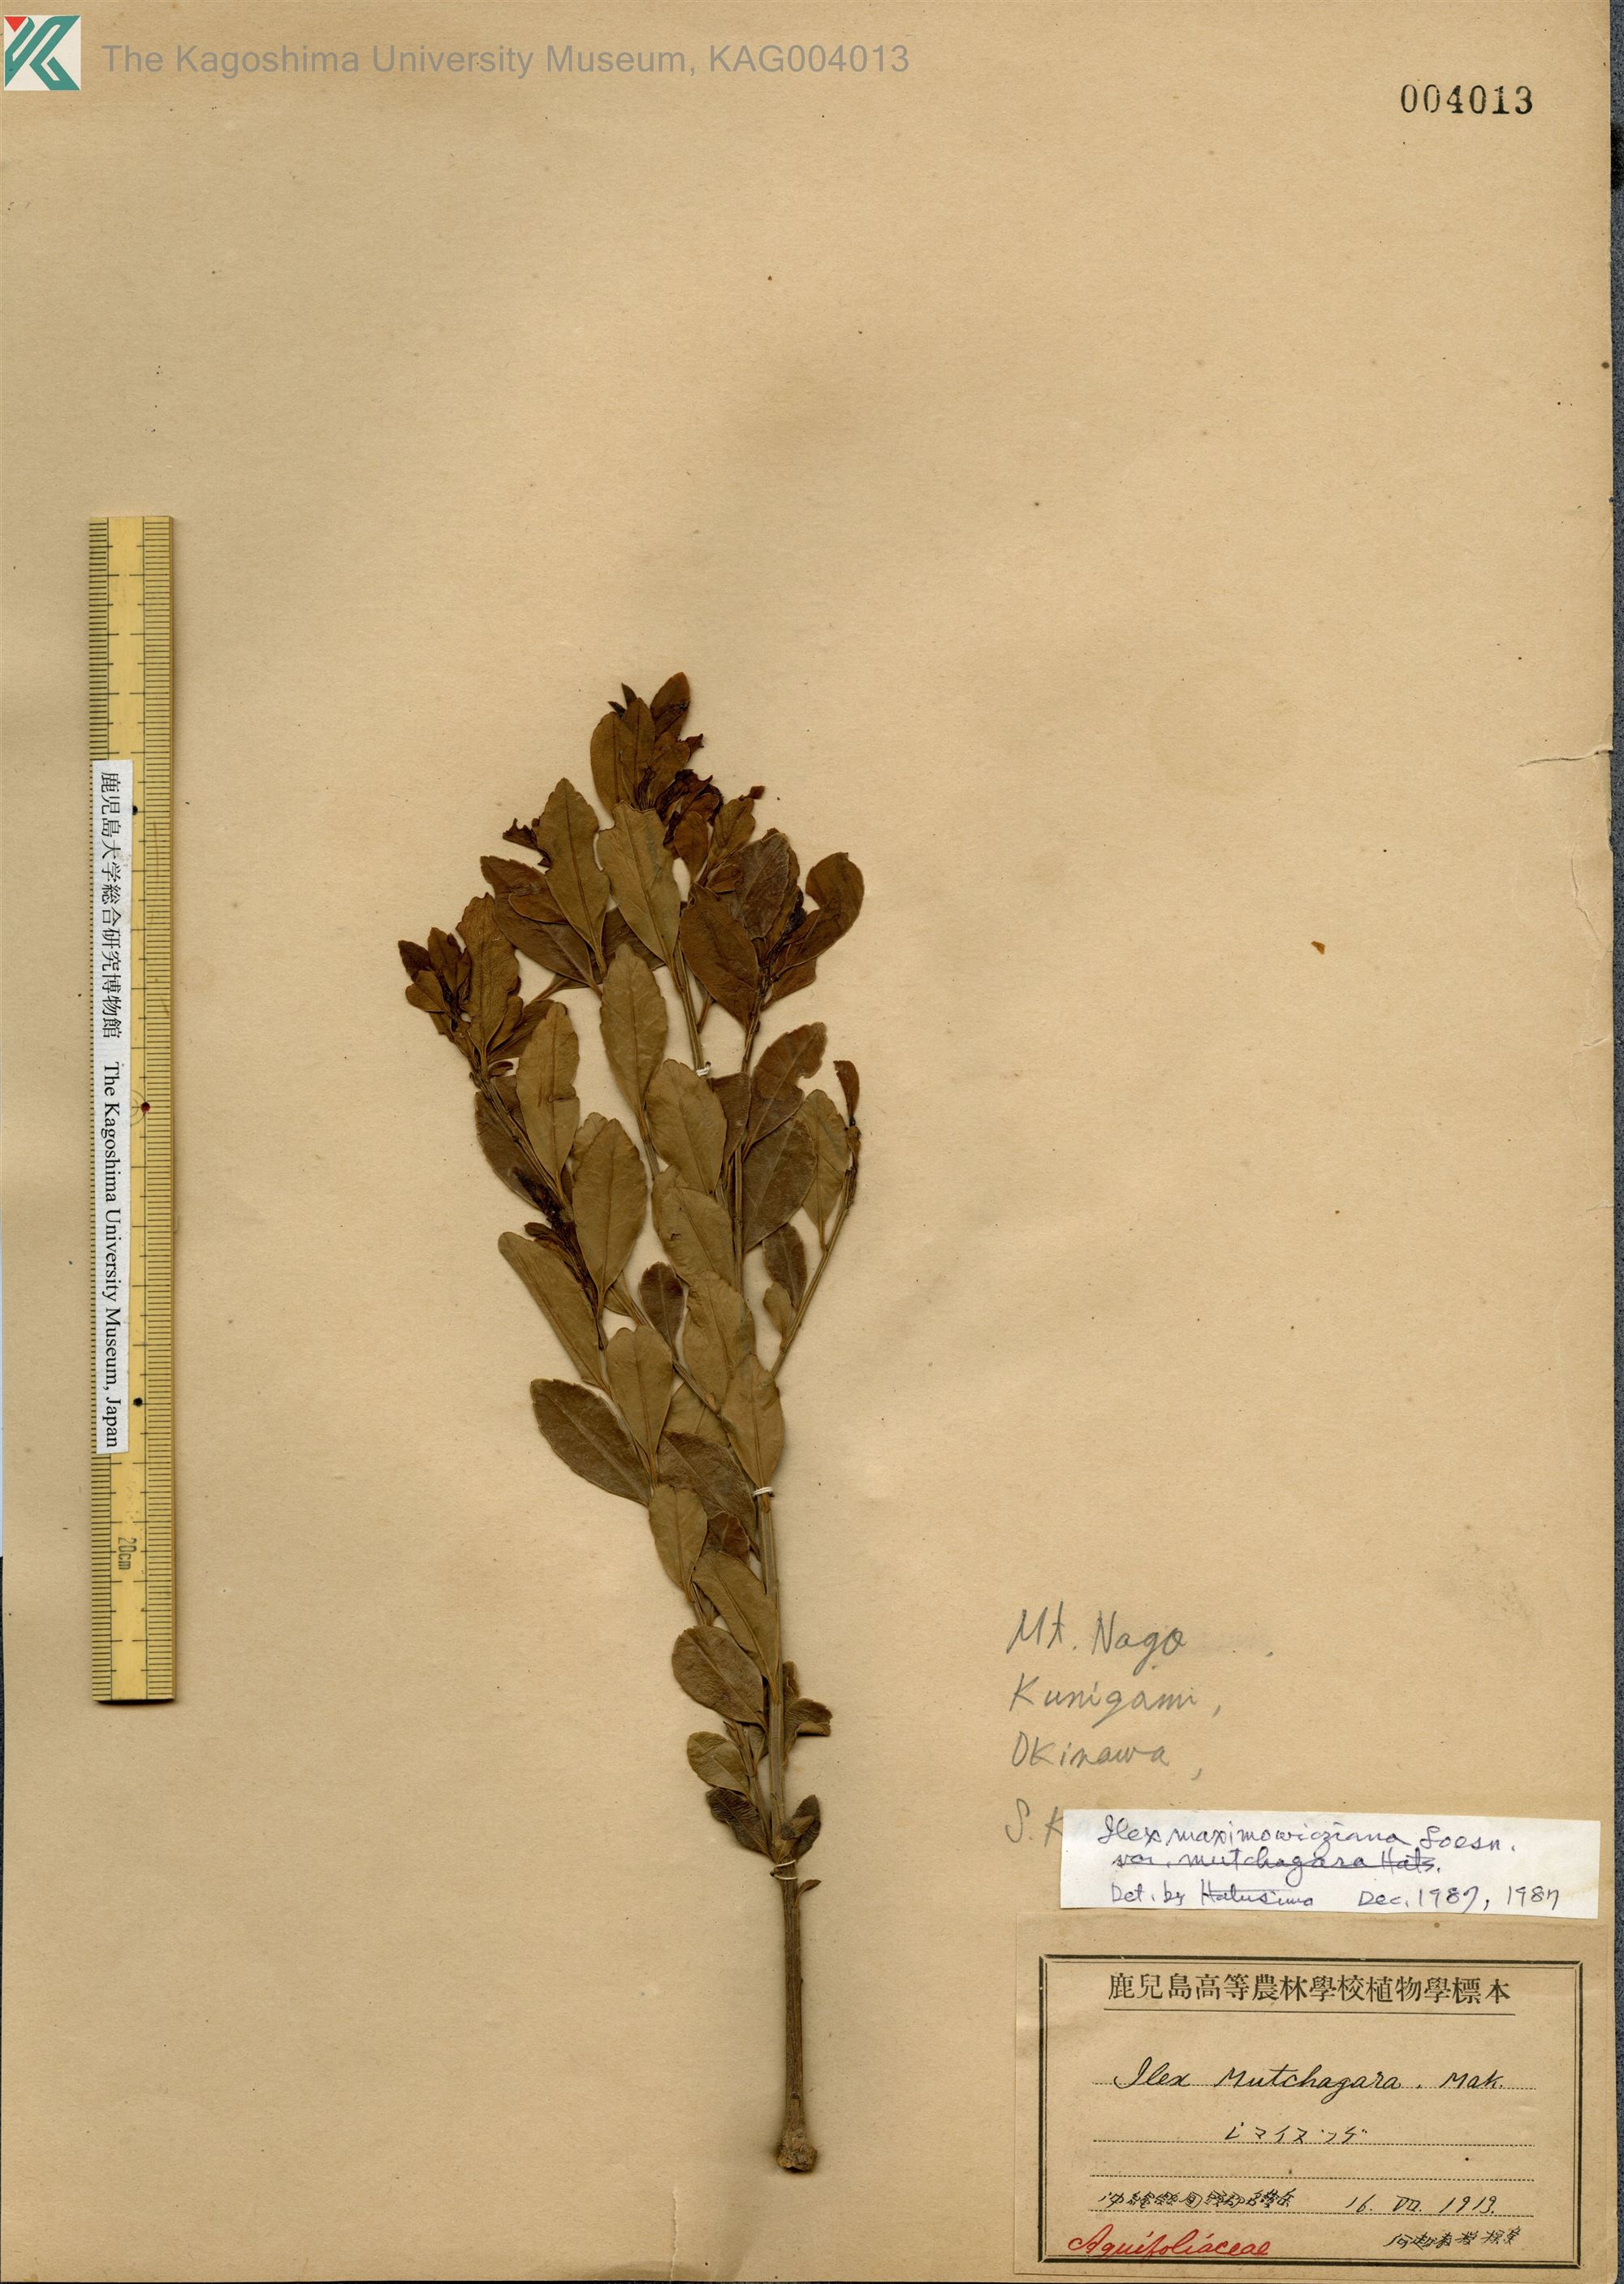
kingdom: Plantae
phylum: Tracheophyta
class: Magnoliopsida
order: Aquifoliales
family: Aquifoliaceae
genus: Ilex
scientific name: Ilex maximowicziana
